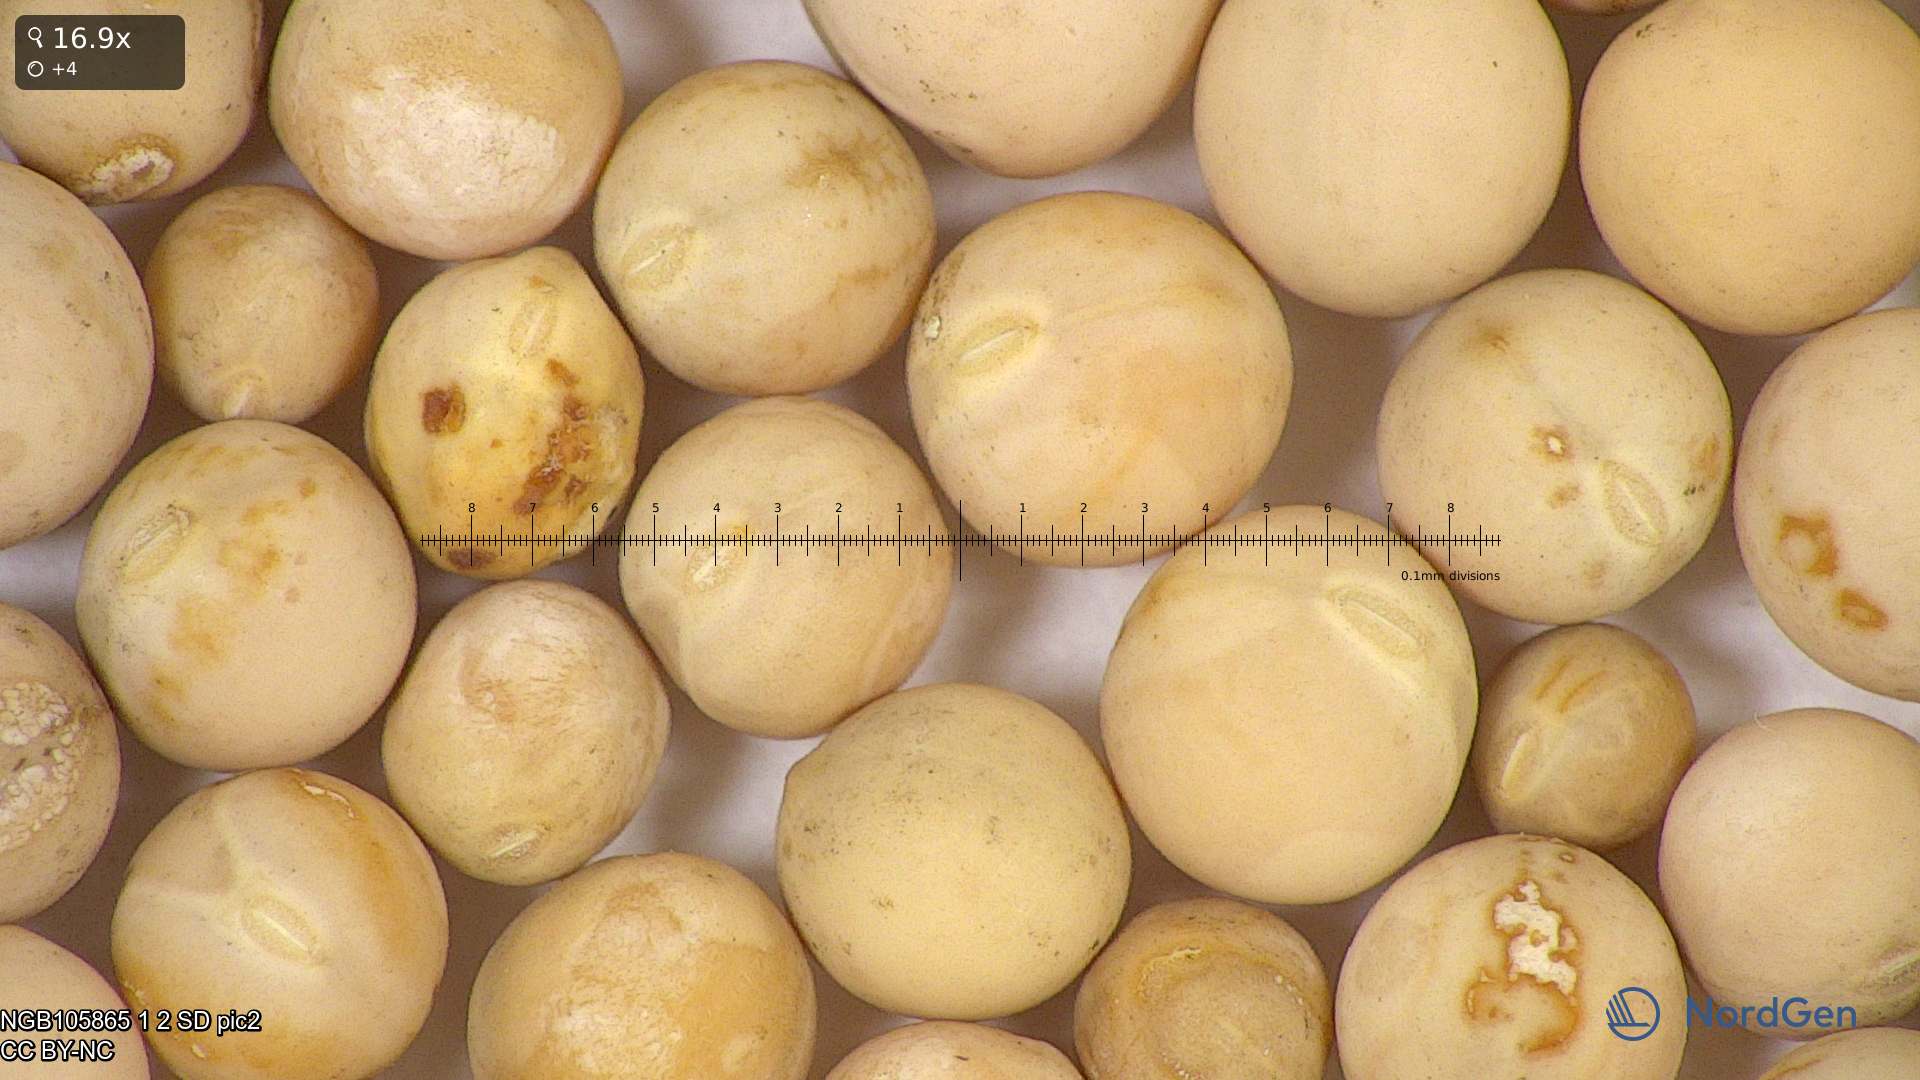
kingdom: Plantae
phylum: Tracheophyta
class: Magnoliopsida
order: Fabales
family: Fabaceae
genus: Lathyrus
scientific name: Lathyrus oleraceus
